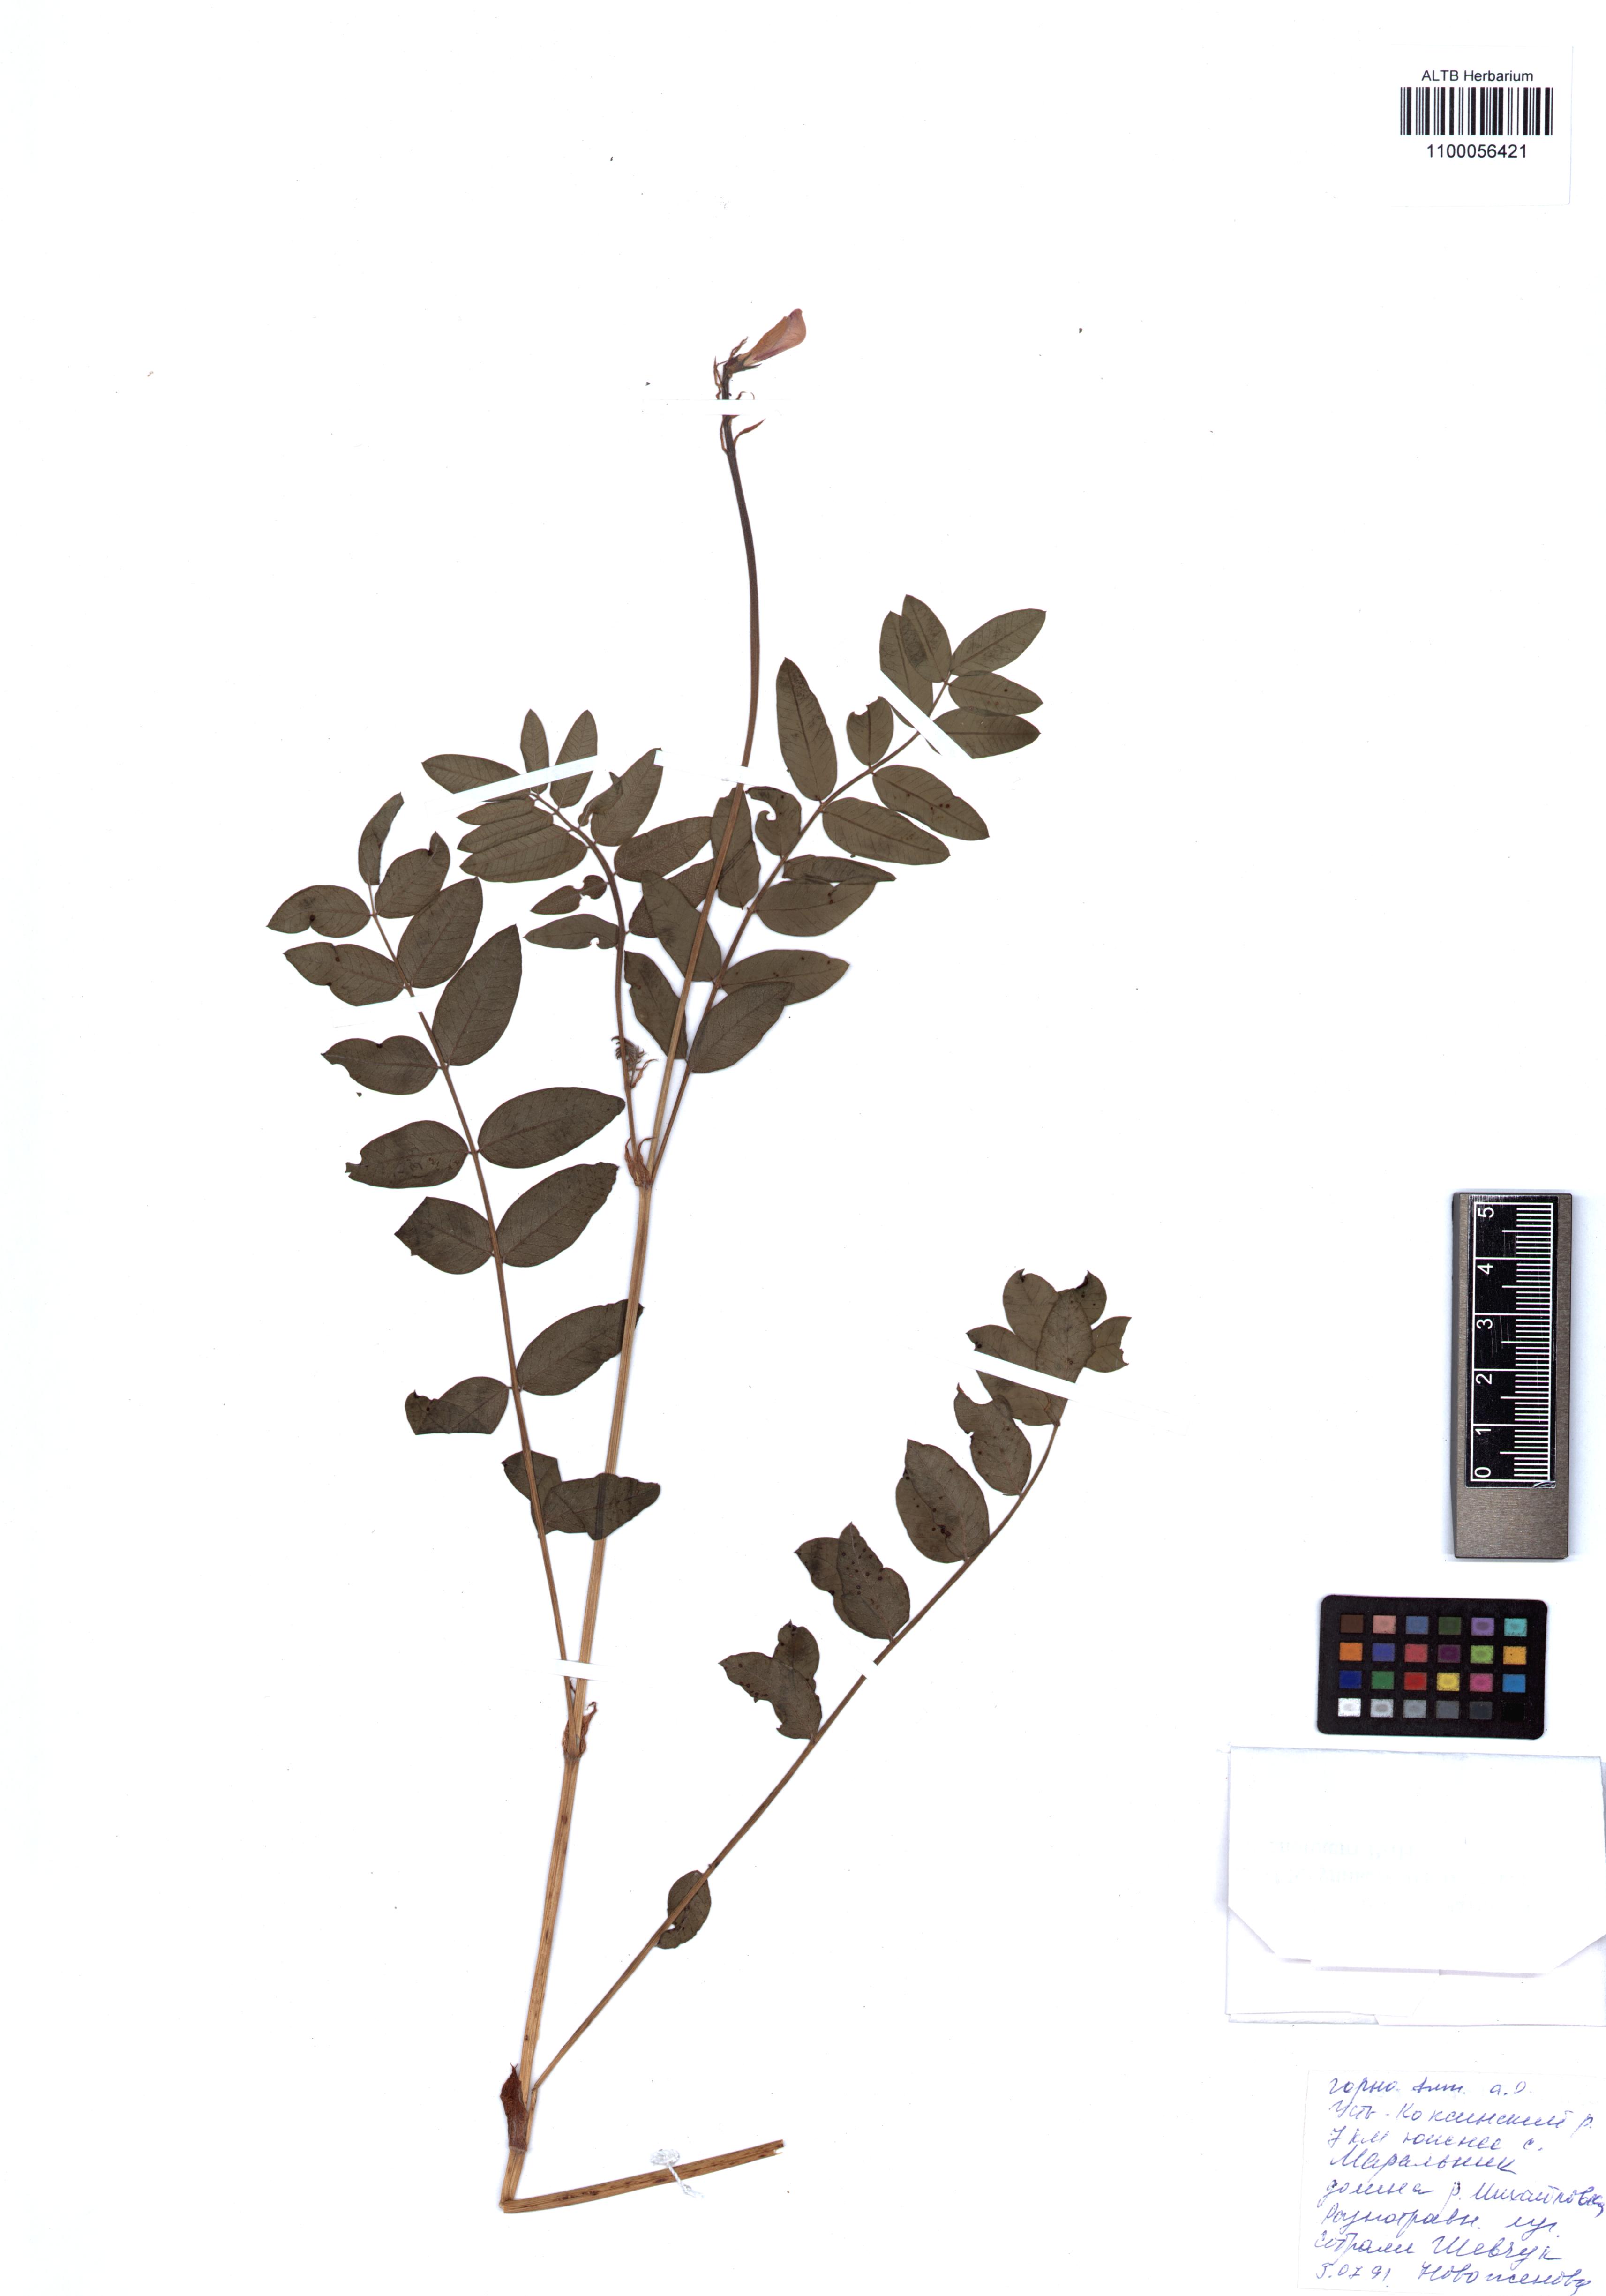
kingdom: Plantae
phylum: Tracheophyta
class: Magnoliopsida
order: Fabales
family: Fabaceae
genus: Hedysarum
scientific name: Hedysarum neglectum
